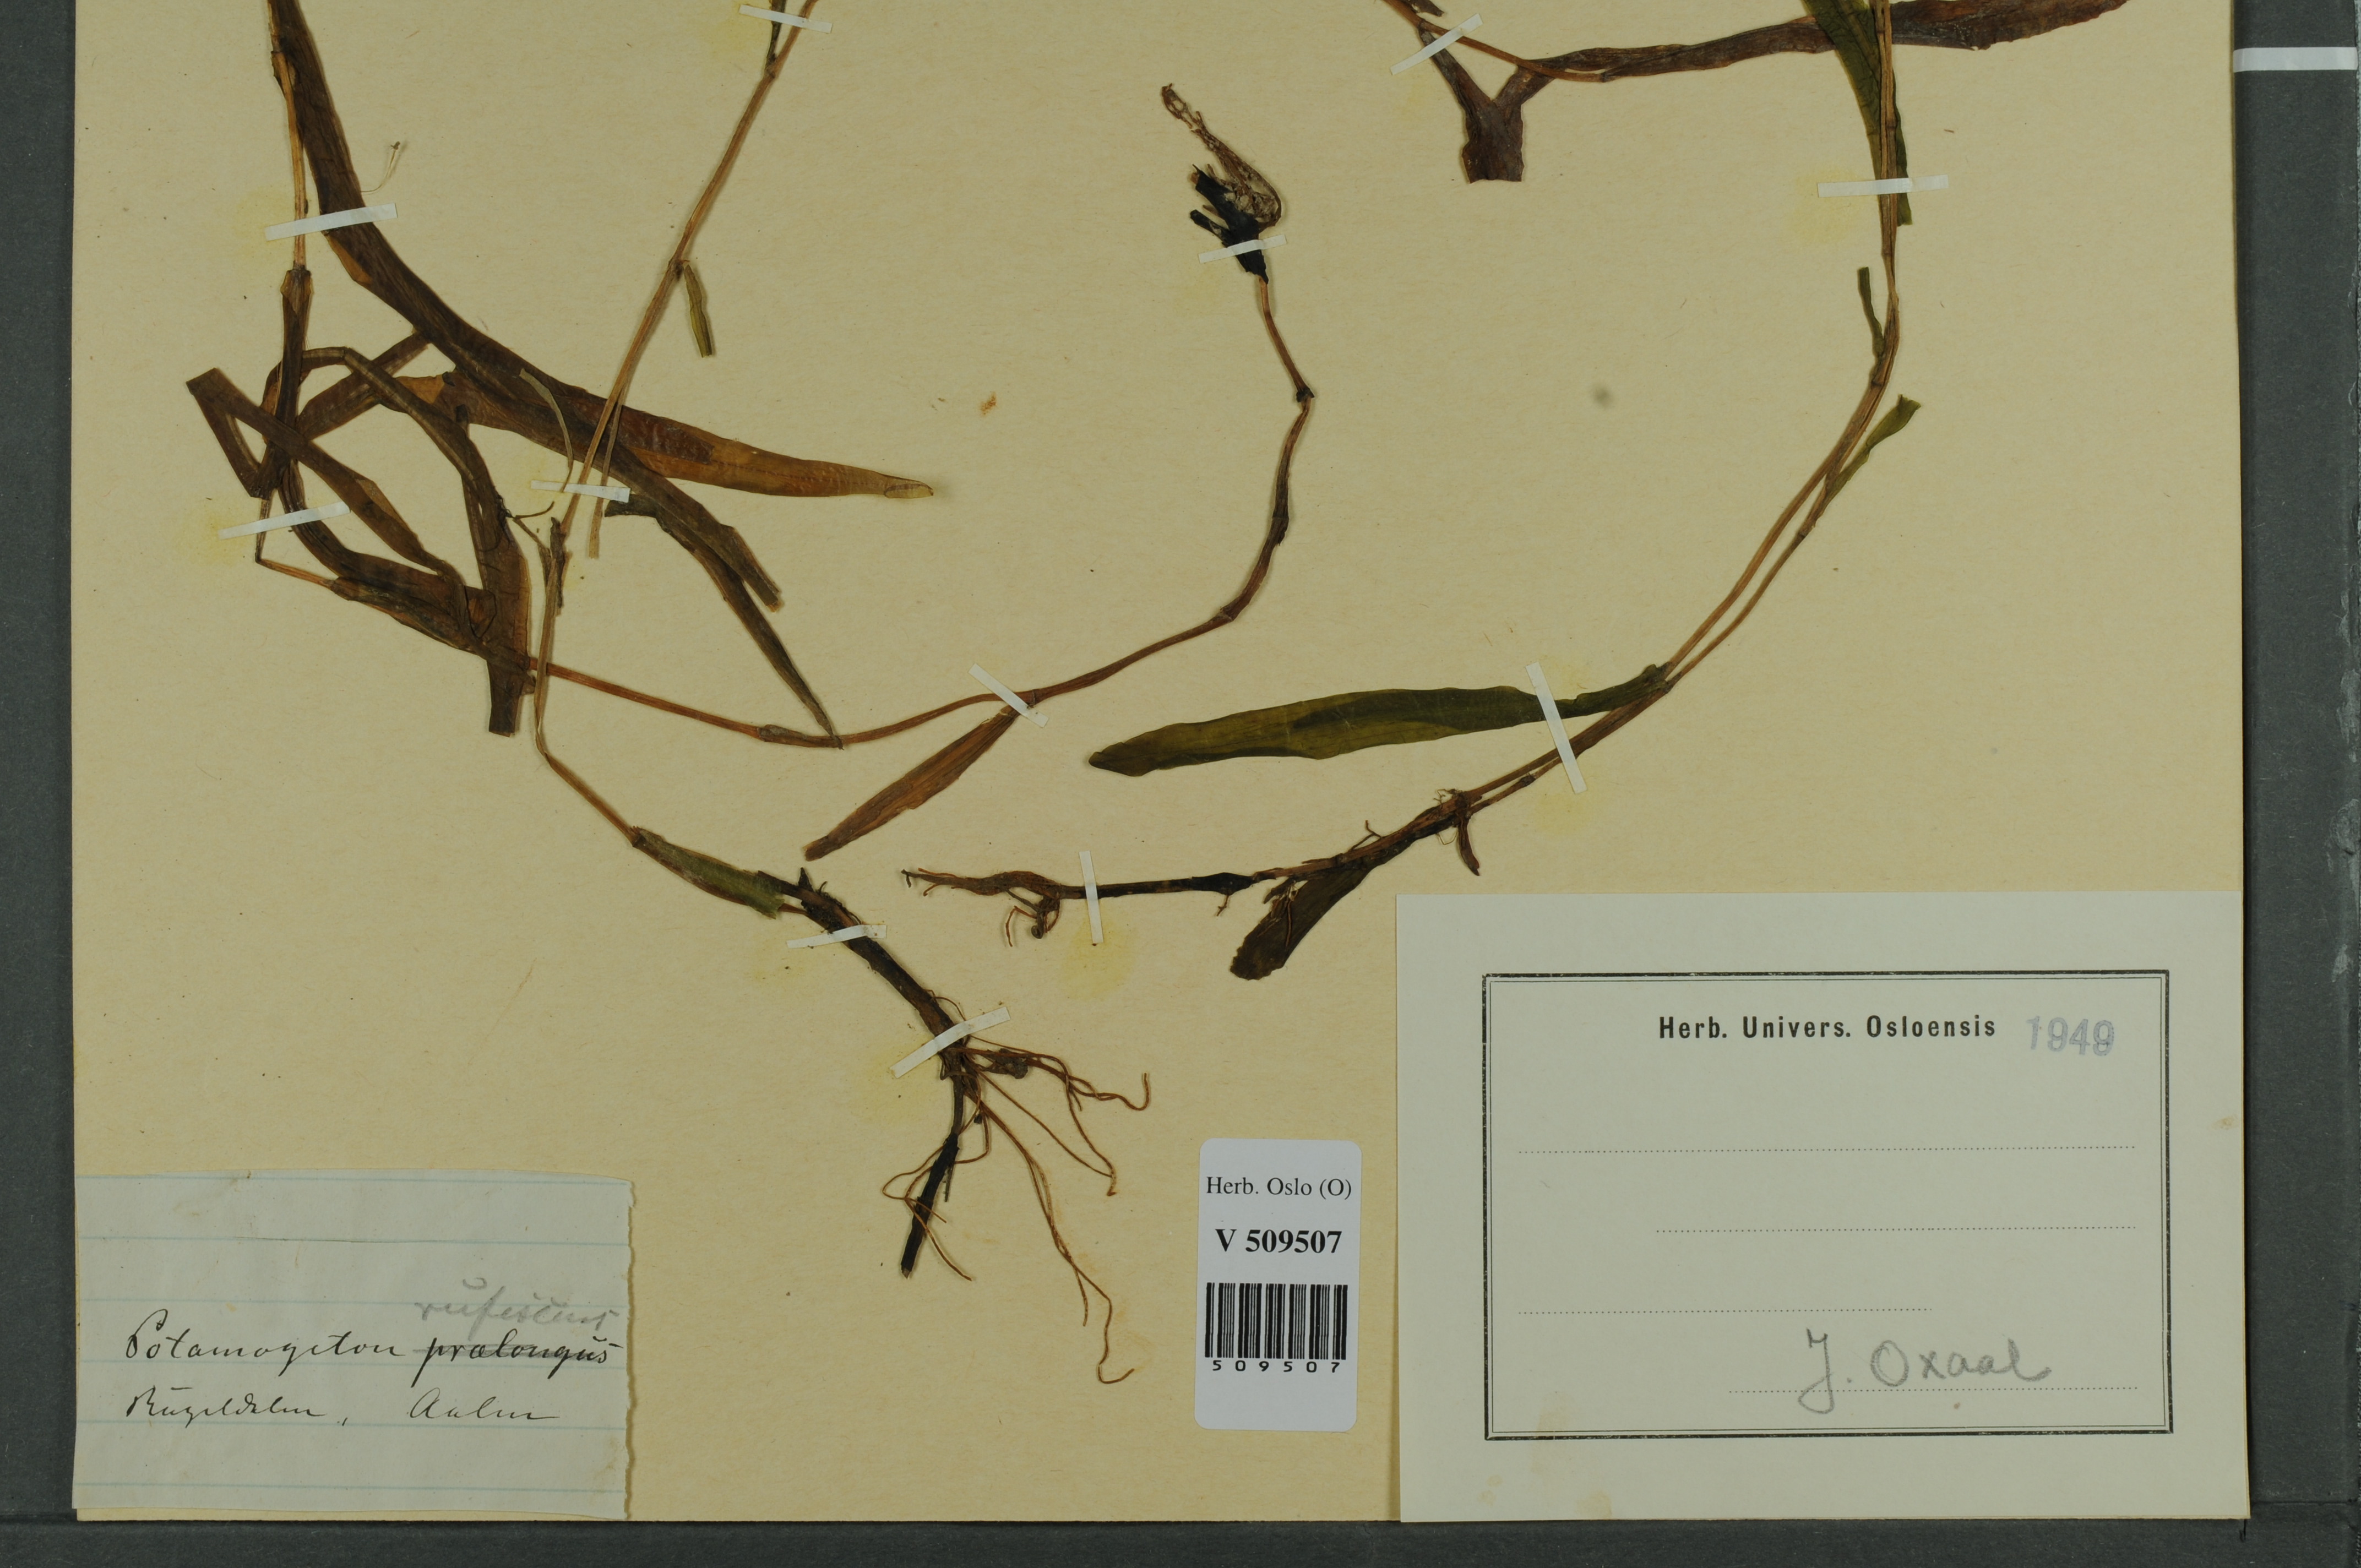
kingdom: Plantae
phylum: Tracheophyta
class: Liliopsida
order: Alismatales
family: Potamogetonaceae
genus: Potamogeton
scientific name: Potamogeton alpinus
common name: Red pondweed
